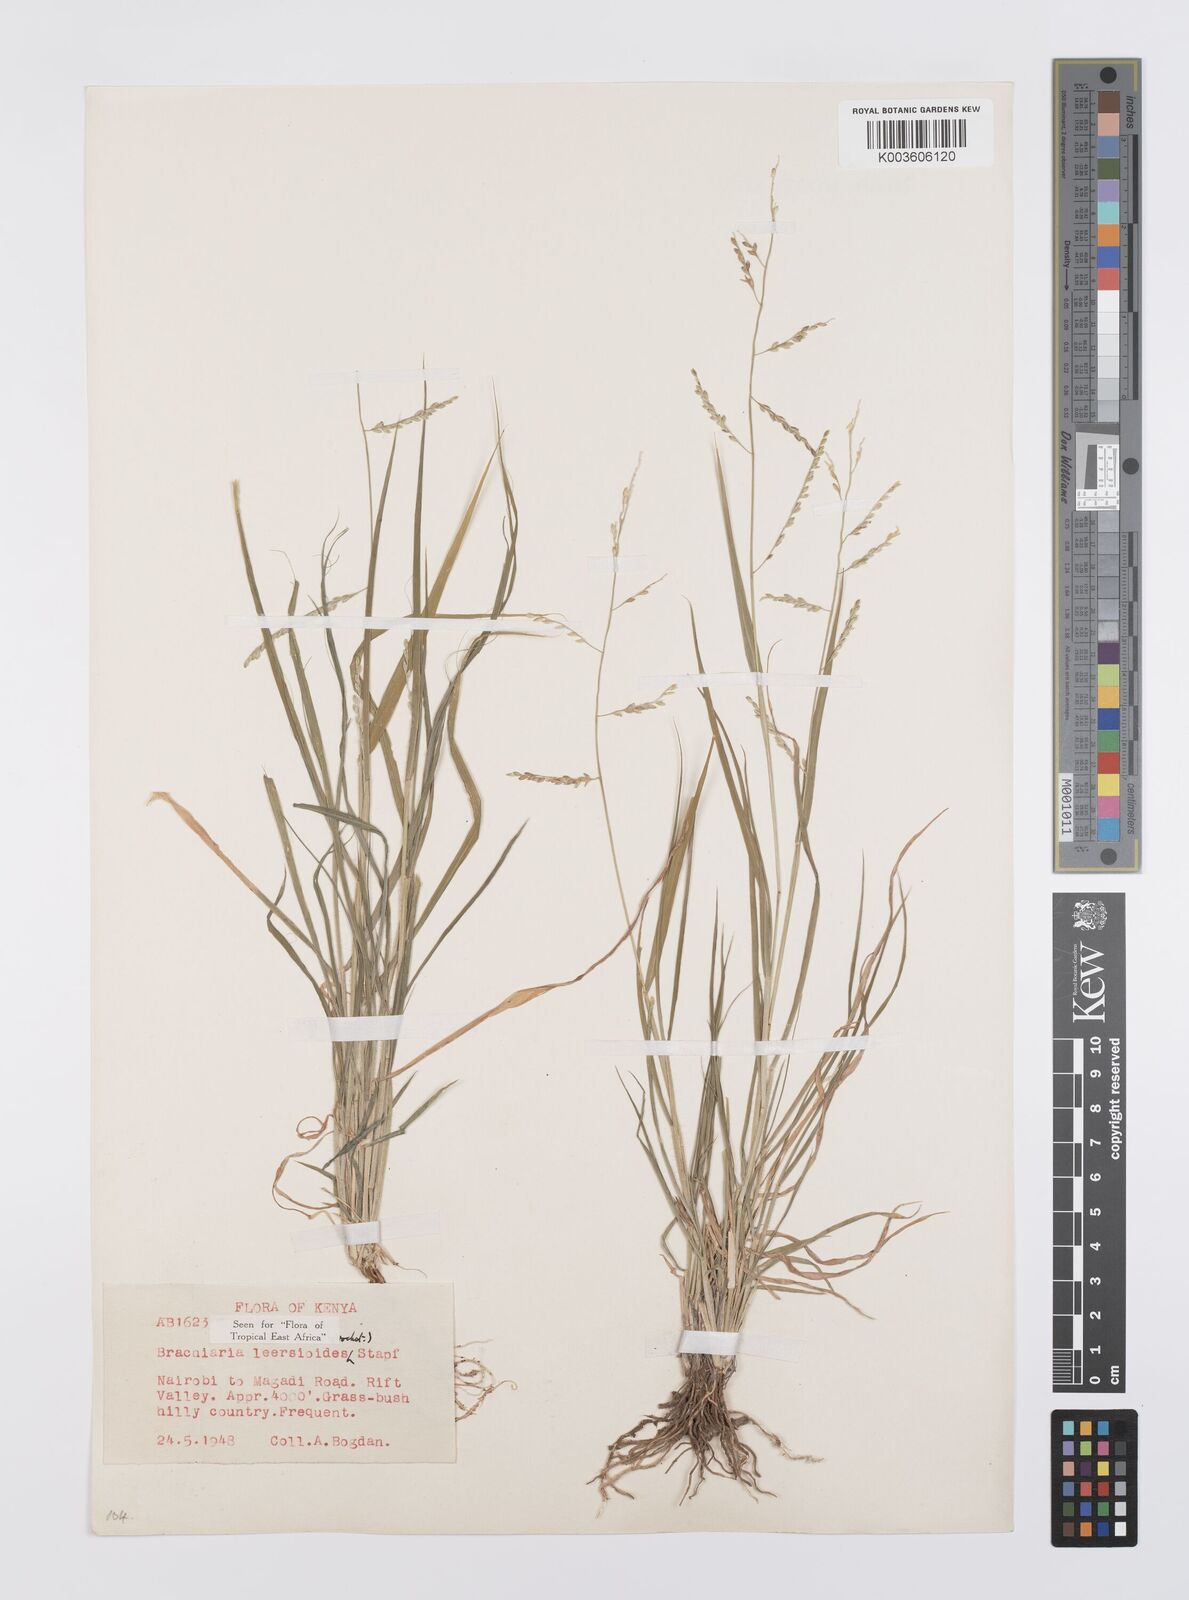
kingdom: Plantae
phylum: Tracheophyta
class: Liliopsida
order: Poales
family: Poaceae
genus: Urochloa
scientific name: Urochloa leersioides
